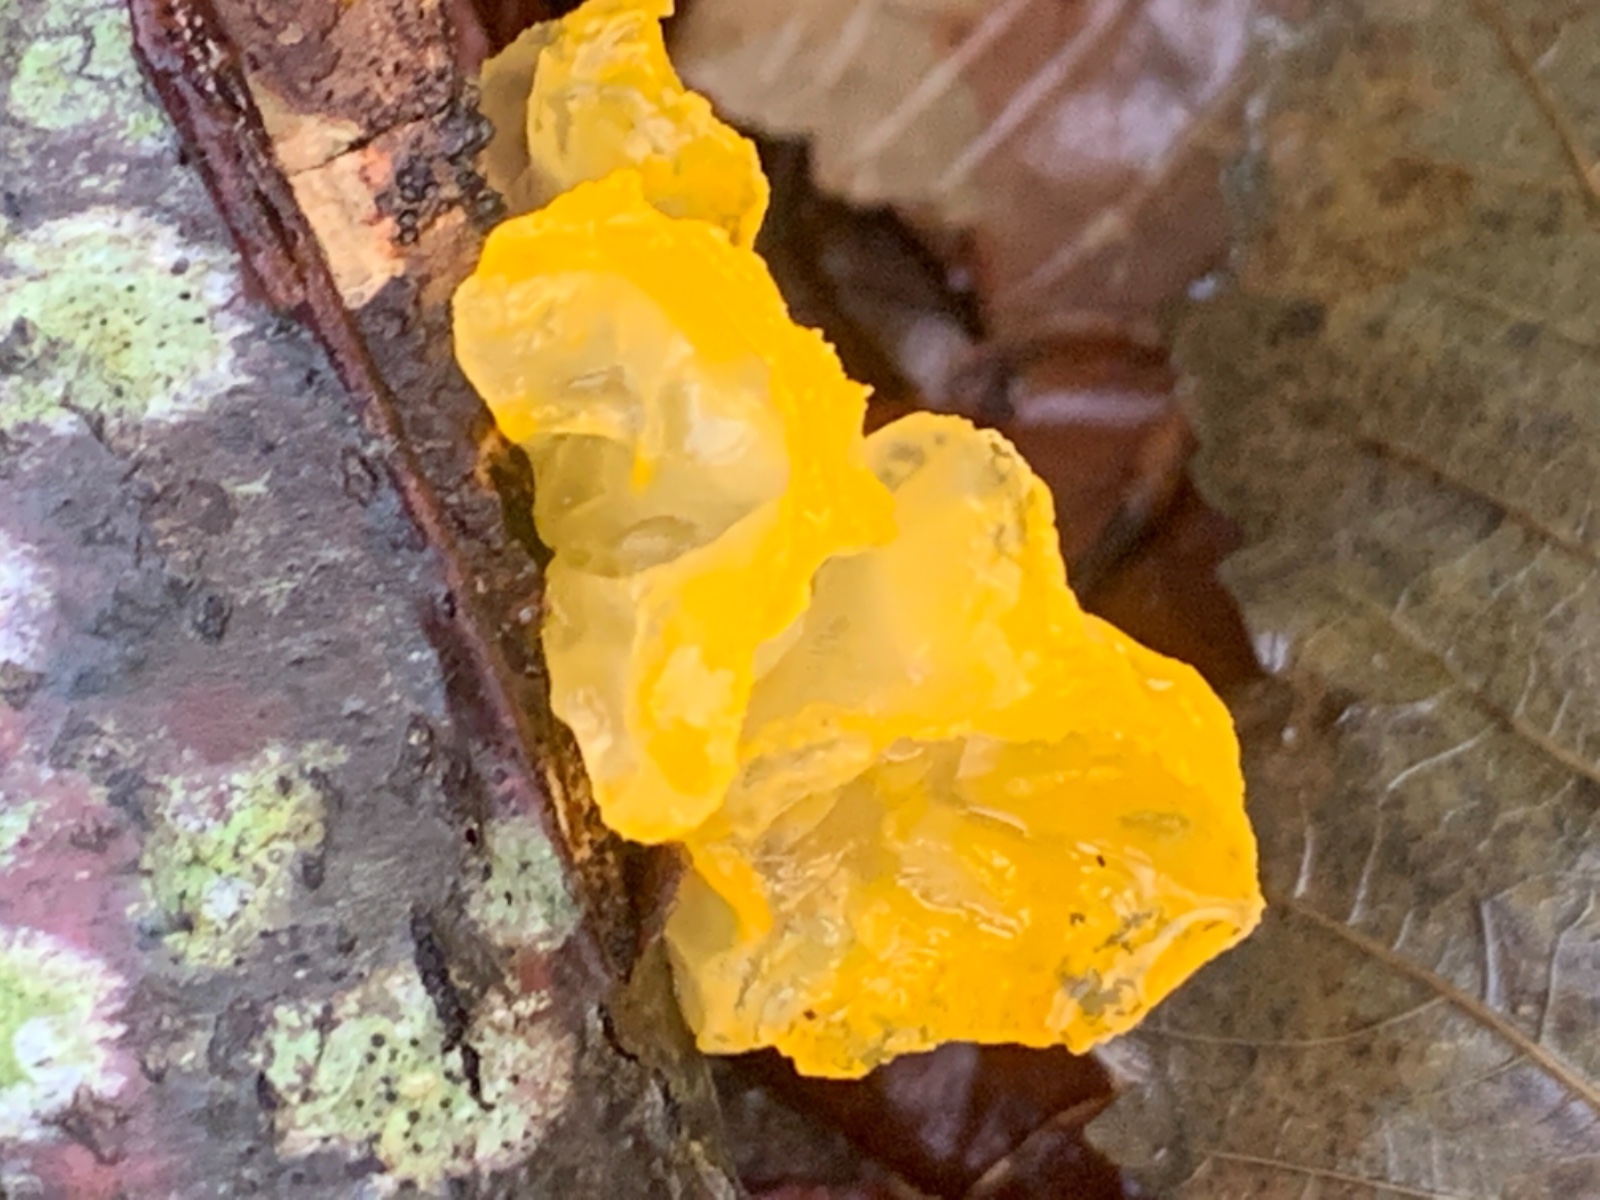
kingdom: Fungi
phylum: Basidiomycota
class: Tremellomycetes
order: Tremellales
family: Tremellaceae
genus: Tremella
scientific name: Tremella mesenterica
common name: gul bævresvamp
